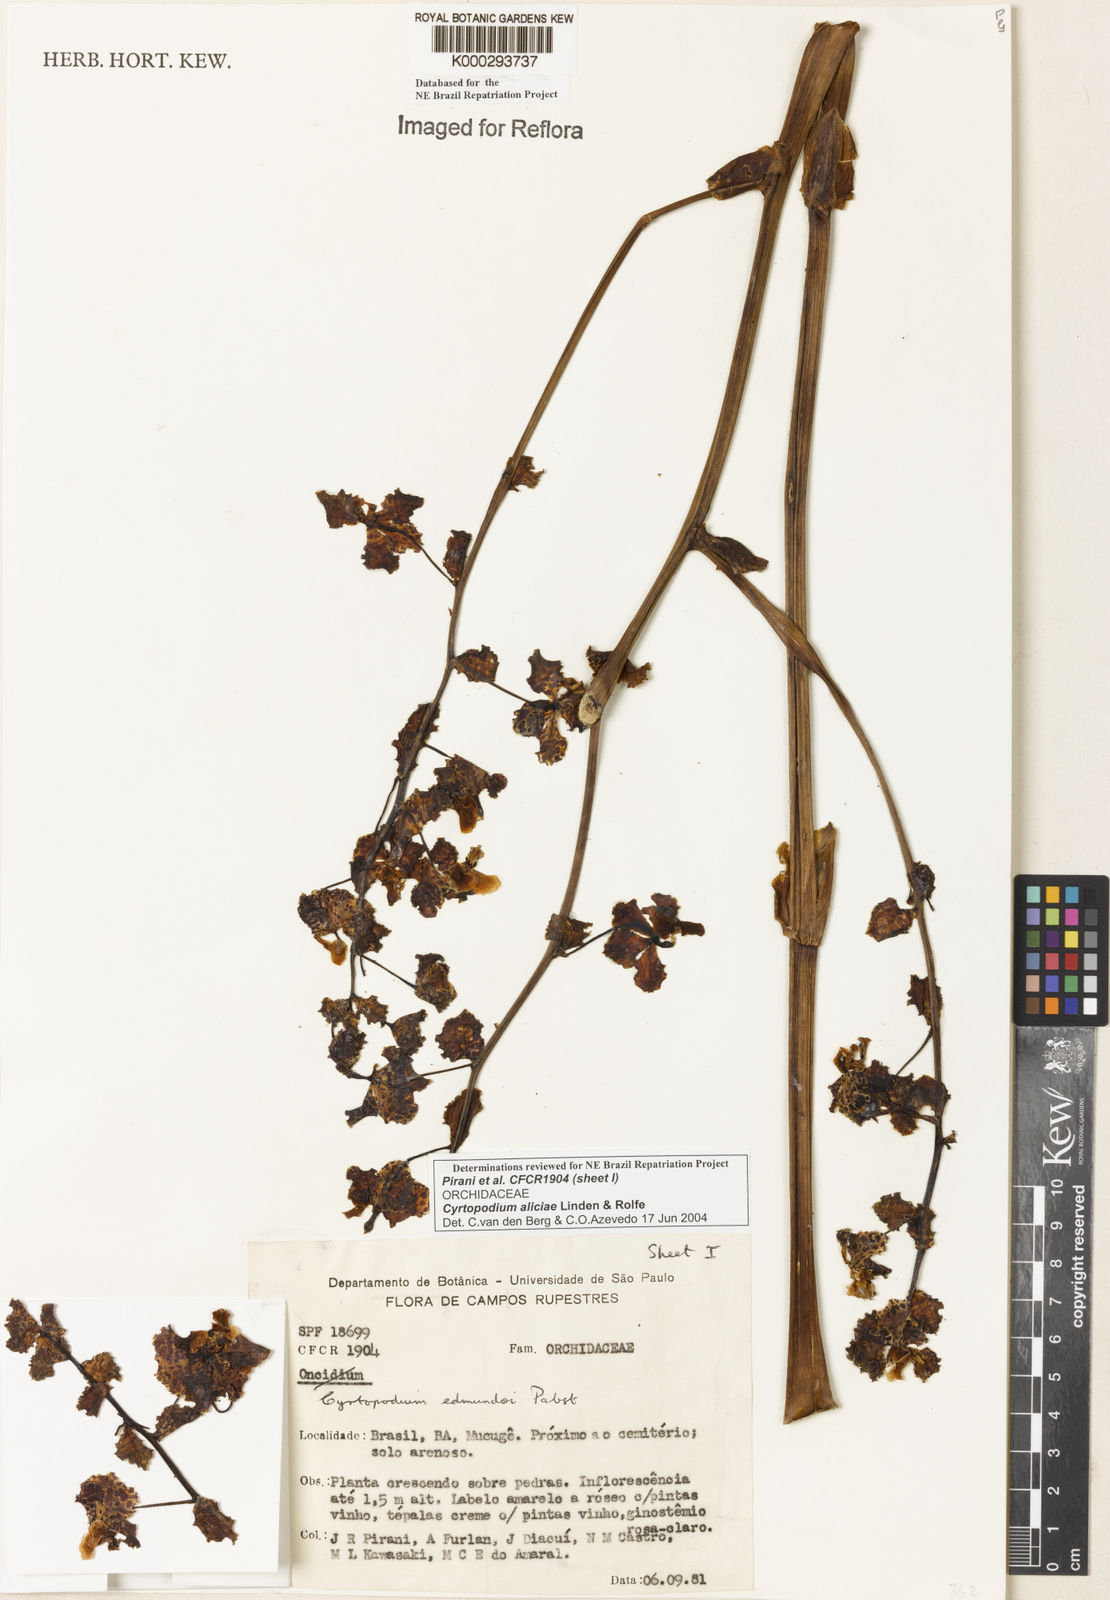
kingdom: Plantae
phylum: Tracheophyta
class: Liliopsida
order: Asparagales
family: Orchidaceae
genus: Cyrtopodium
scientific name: Cyrtopodium aliciae
